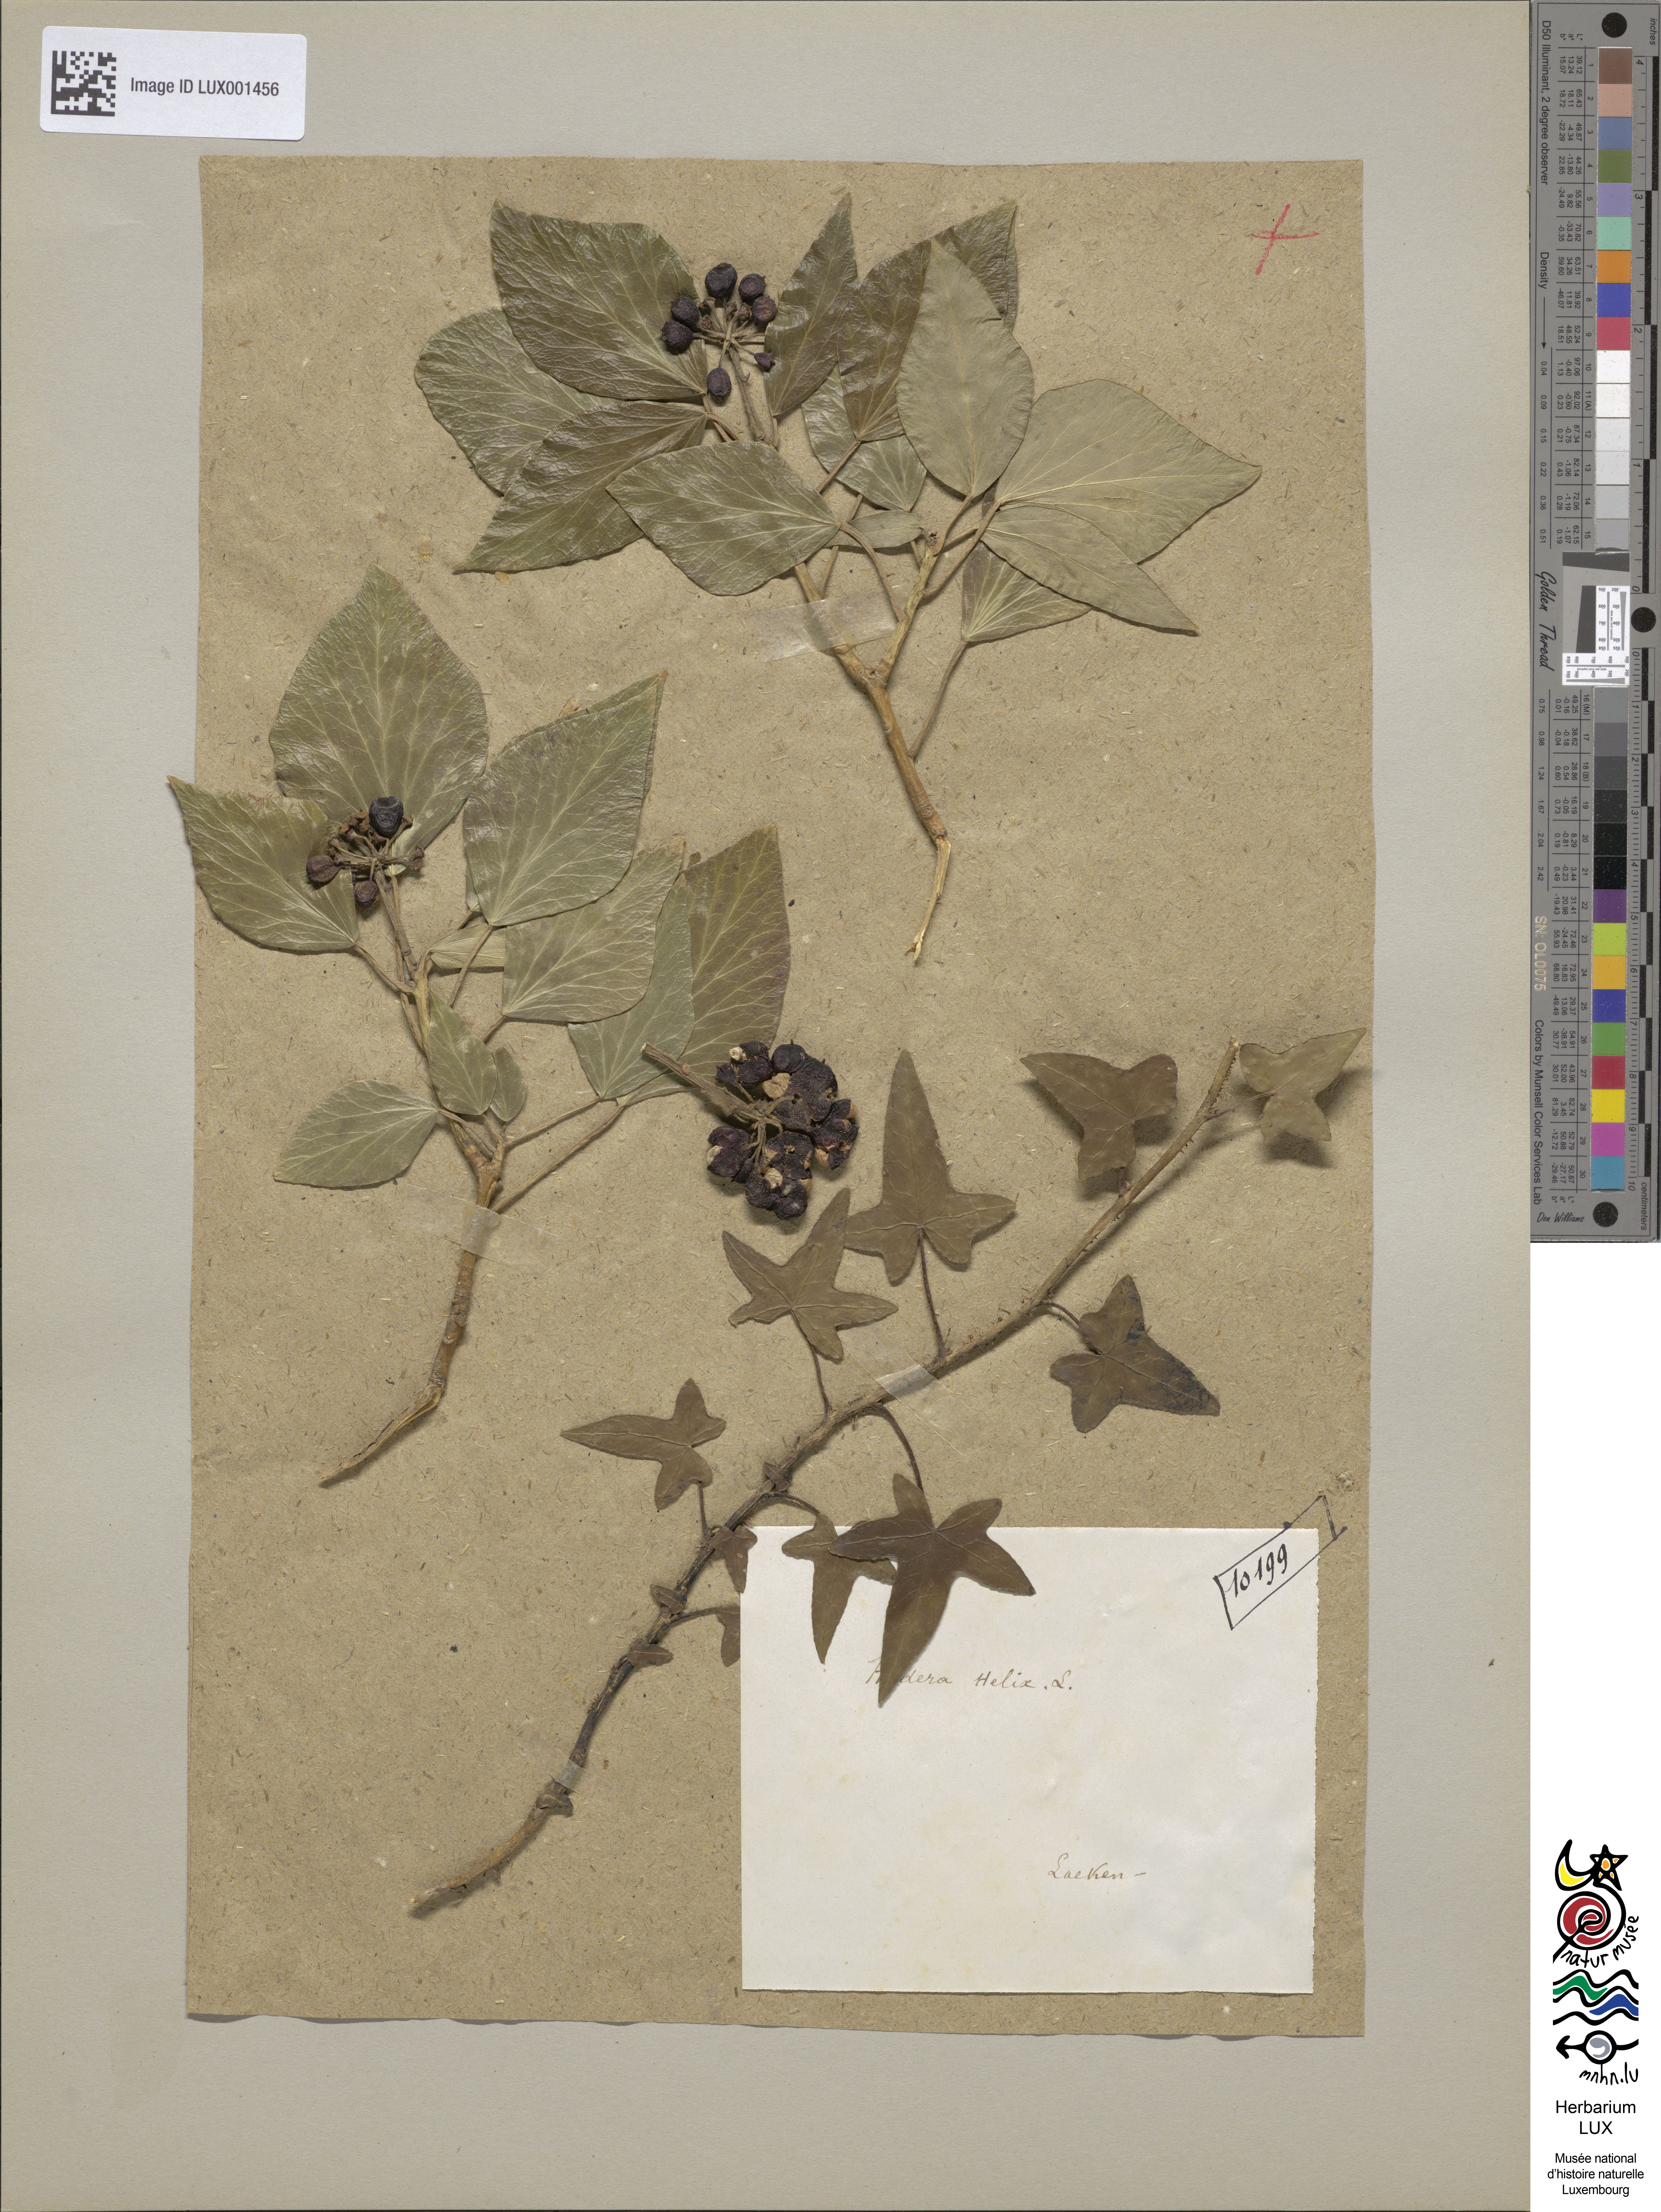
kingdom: Plantae
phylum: Tracheophyta
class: Magnoliopsida
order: Apiales
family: Araliaceae
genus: Hedera
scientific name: Hedera helix
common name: Ivy
